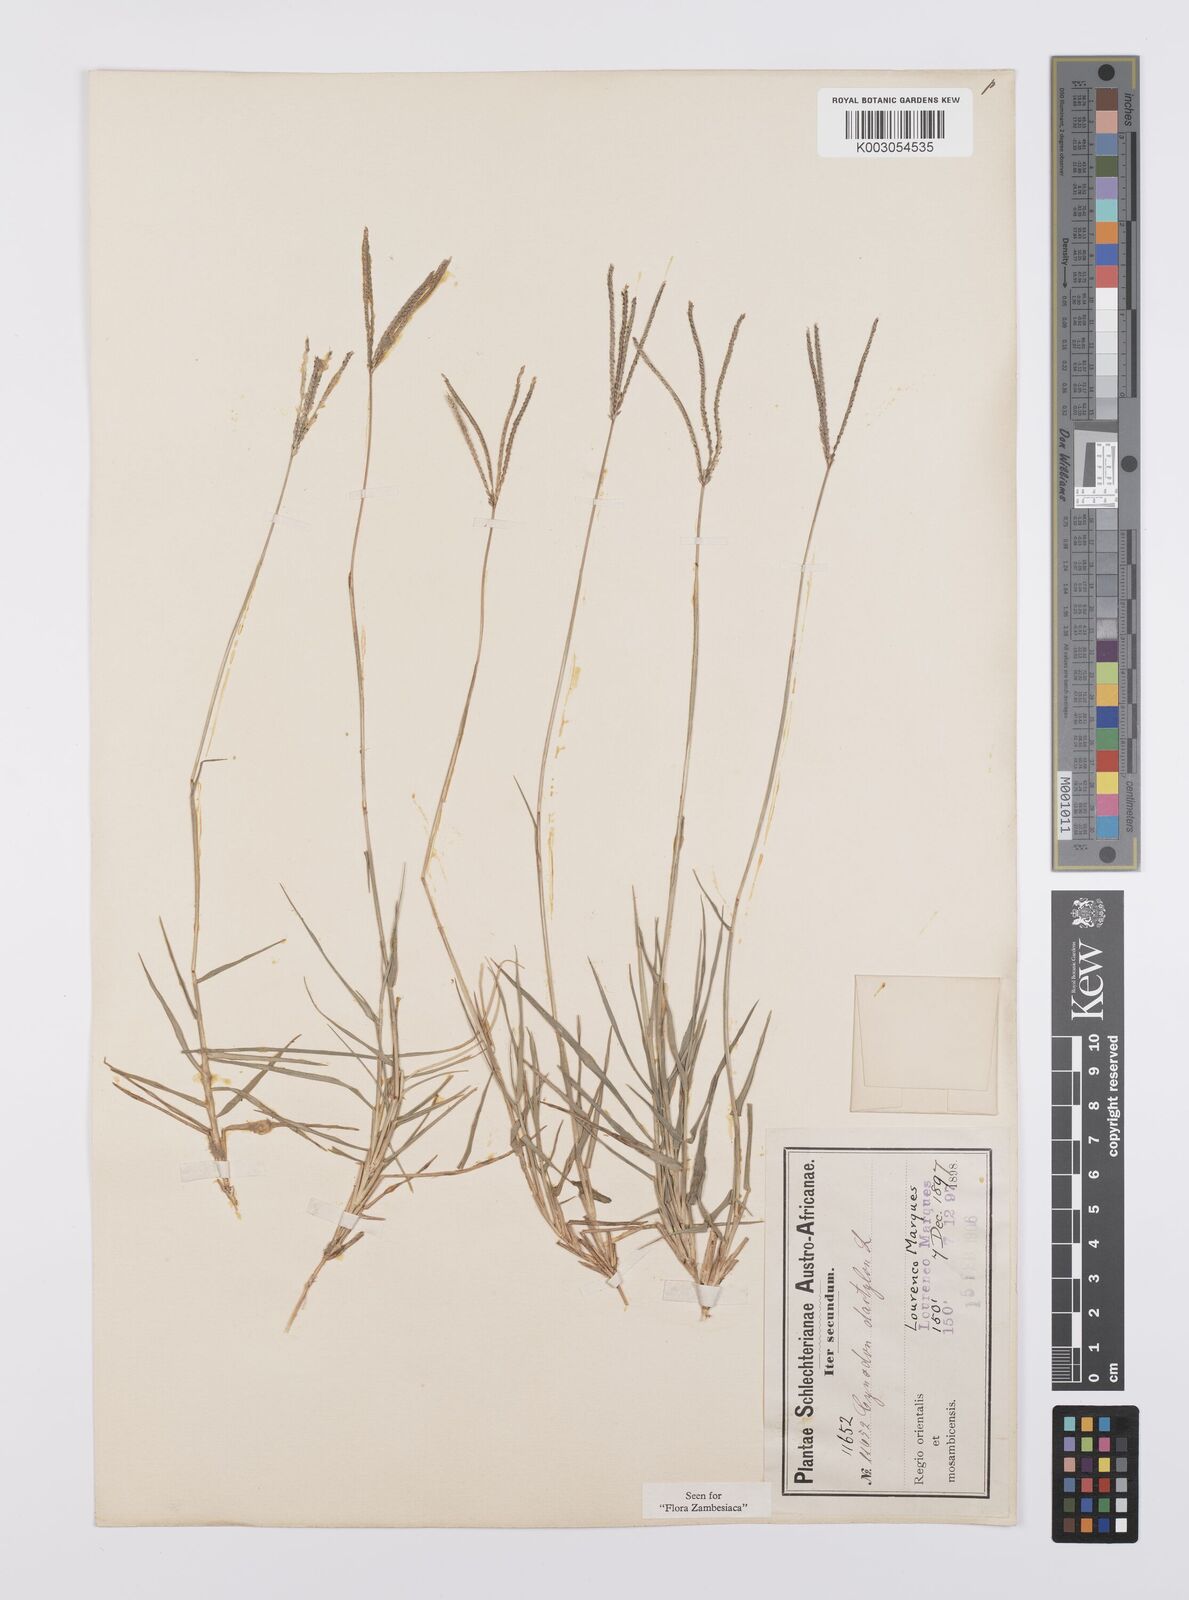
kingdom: Plantae
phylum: Tracheophyta
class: Liliopsida
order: Poales
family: Poaceae
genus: Cynodon
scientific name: Cynodon dactylon
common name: Bermuda grass
